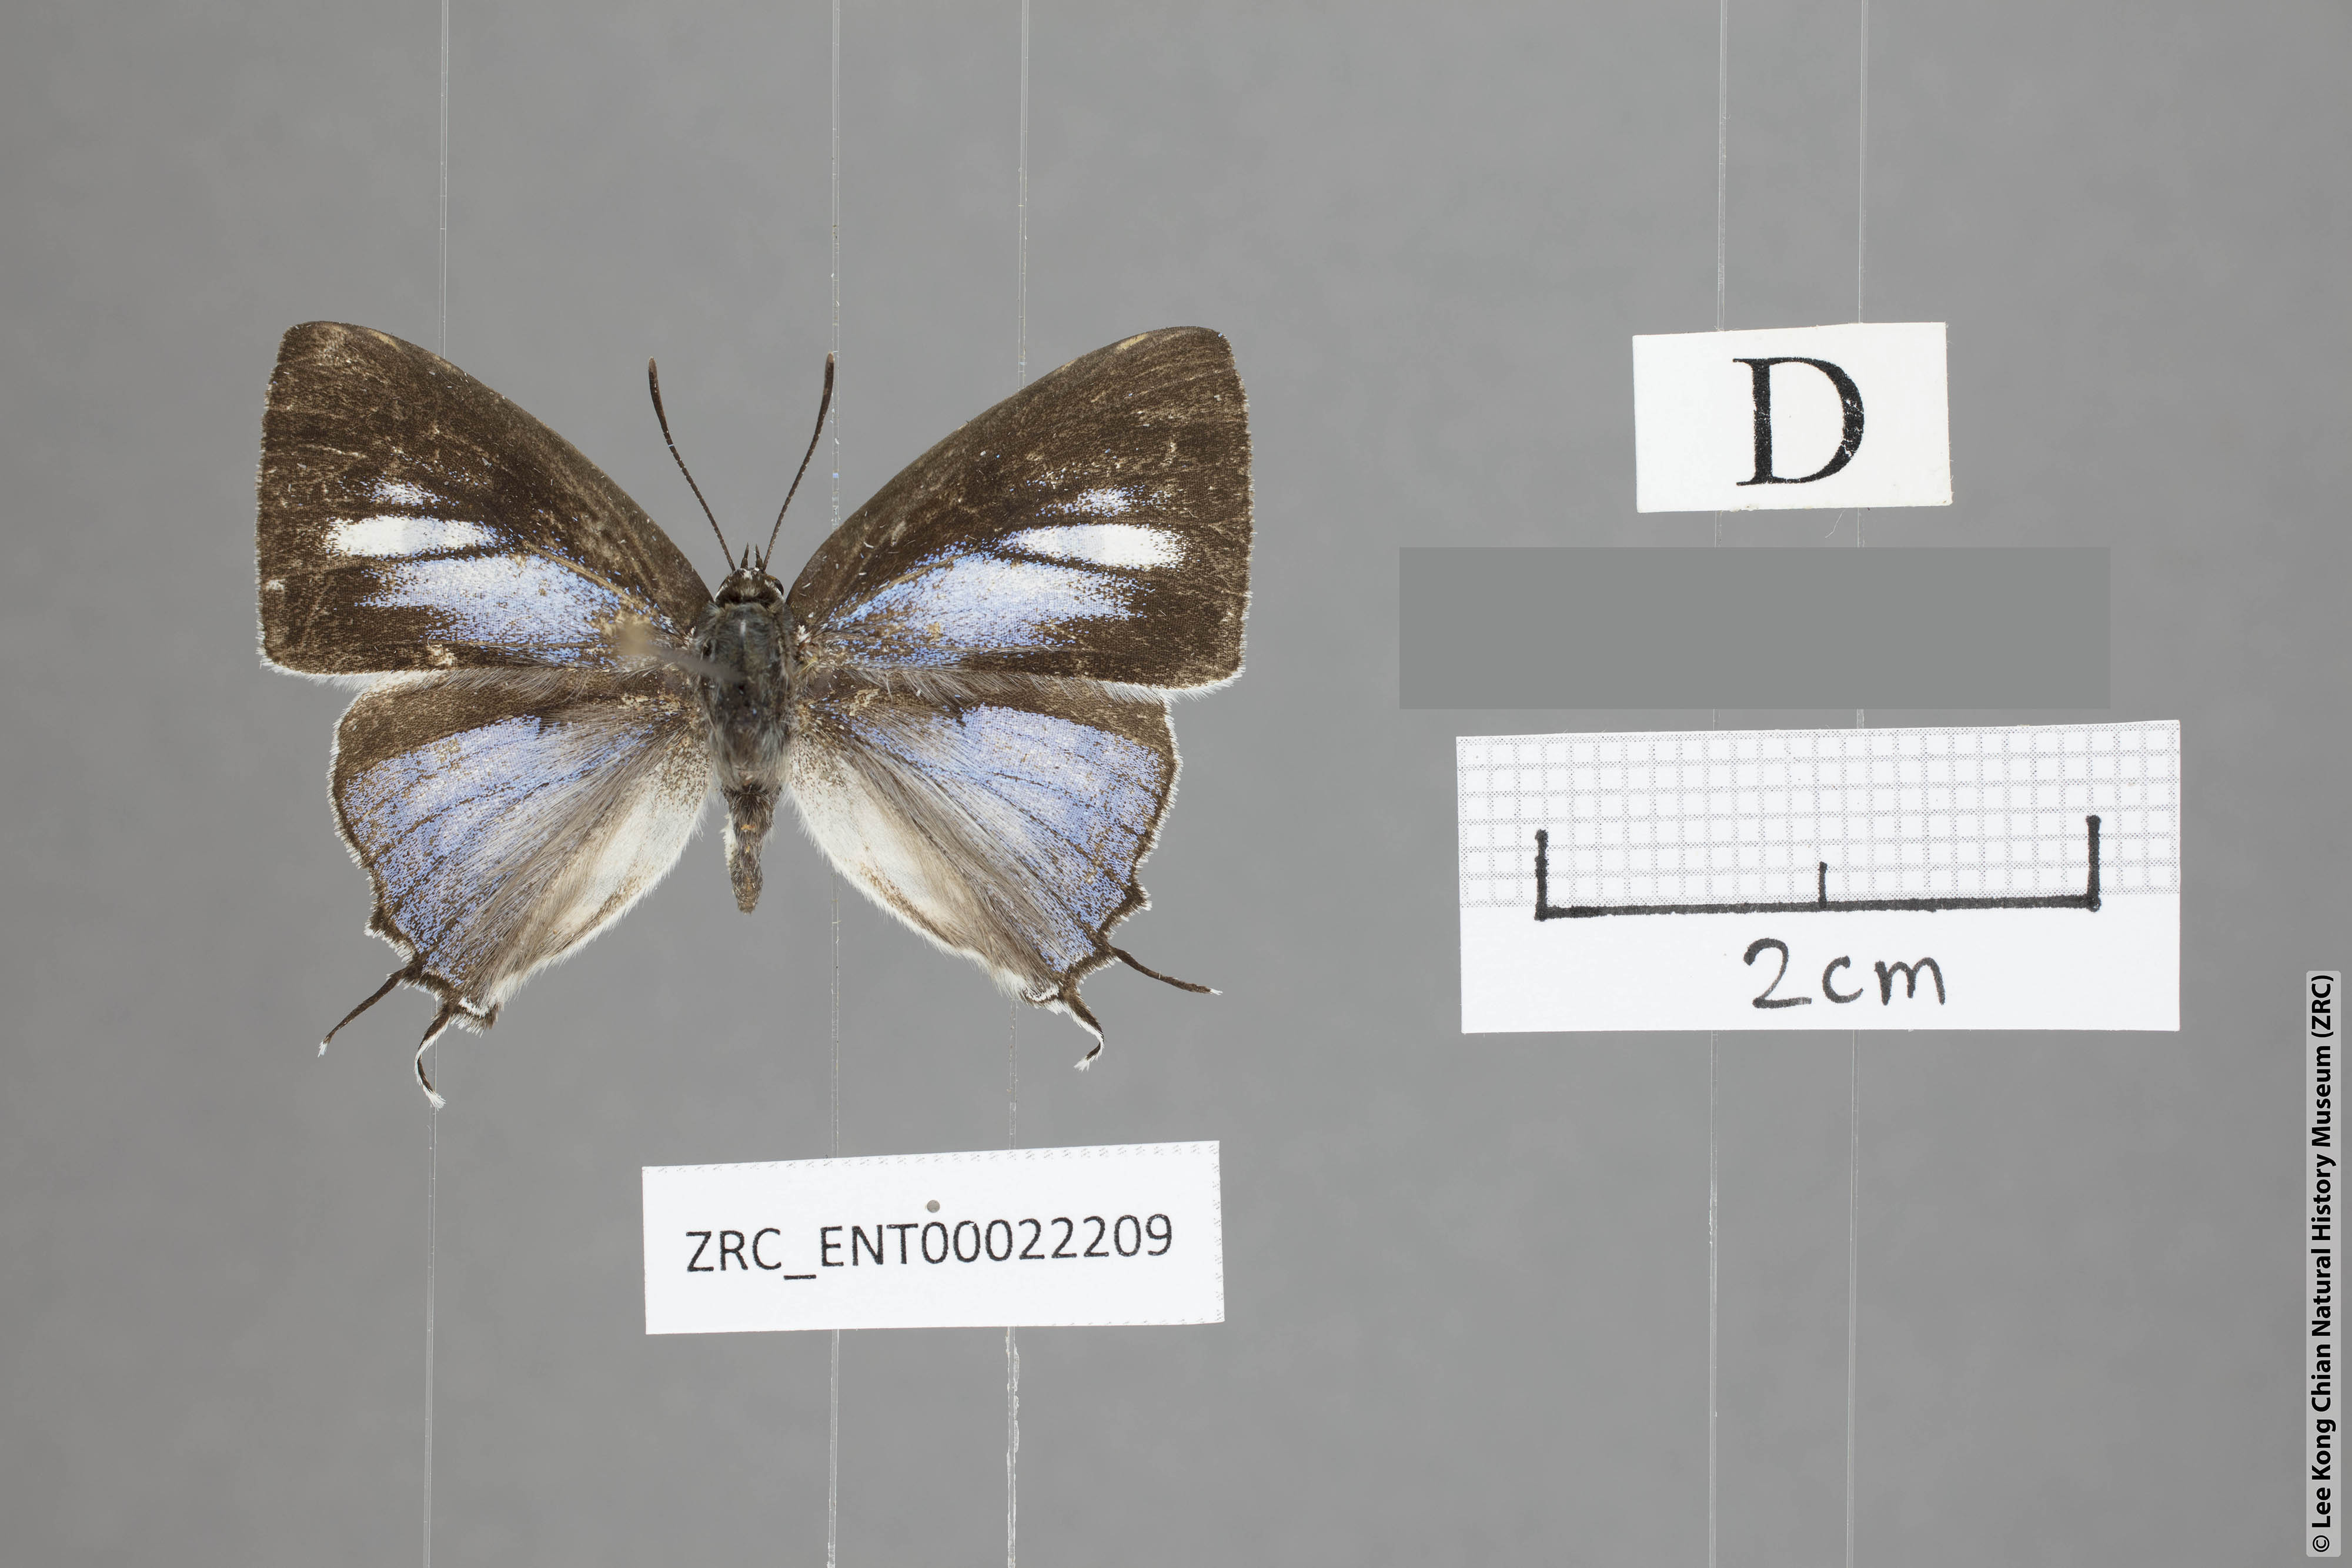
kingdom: Animalia
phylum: Arthropoda
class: Insecta
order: Lepidoptera
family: Lycaenidae
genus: Tajuria
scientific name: Tajuria maculatus
